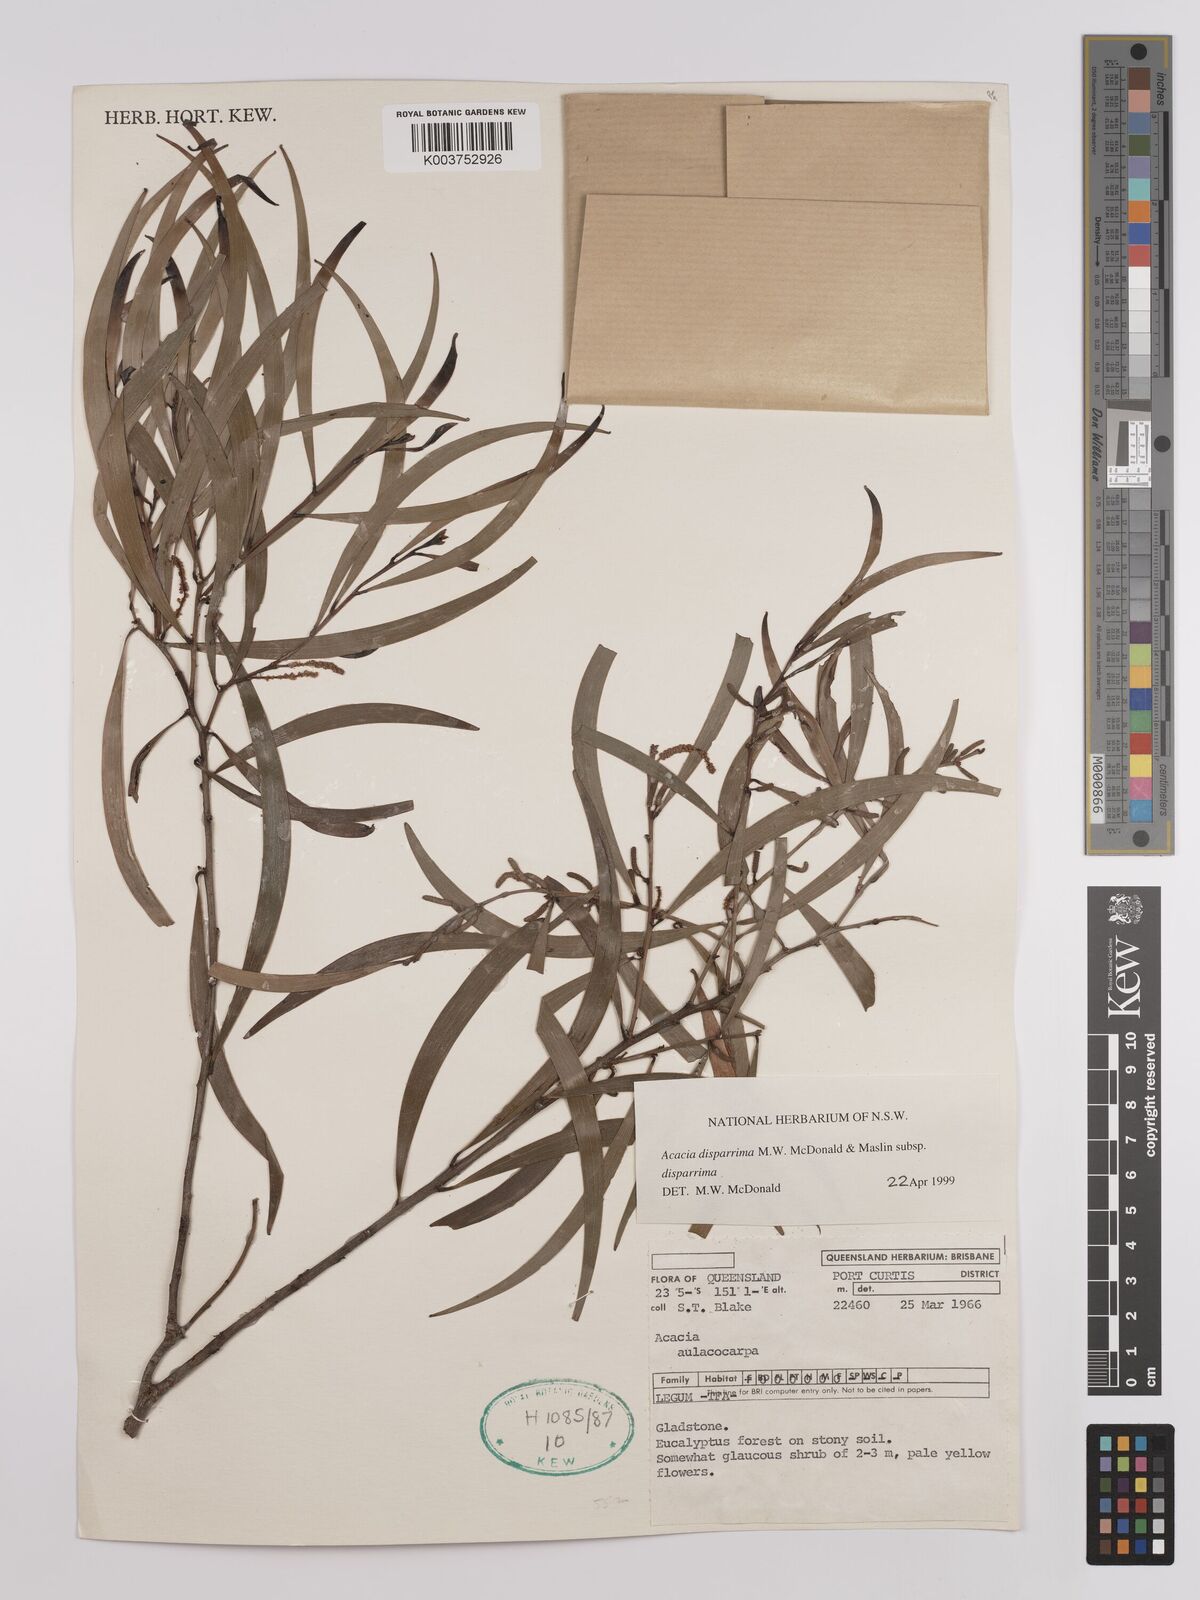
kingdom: Plantae
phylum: Tracheophyta
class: Magnoliopsida
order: Fabales
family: Fabaceae
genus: Acacia
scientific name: Acacia disparrima
